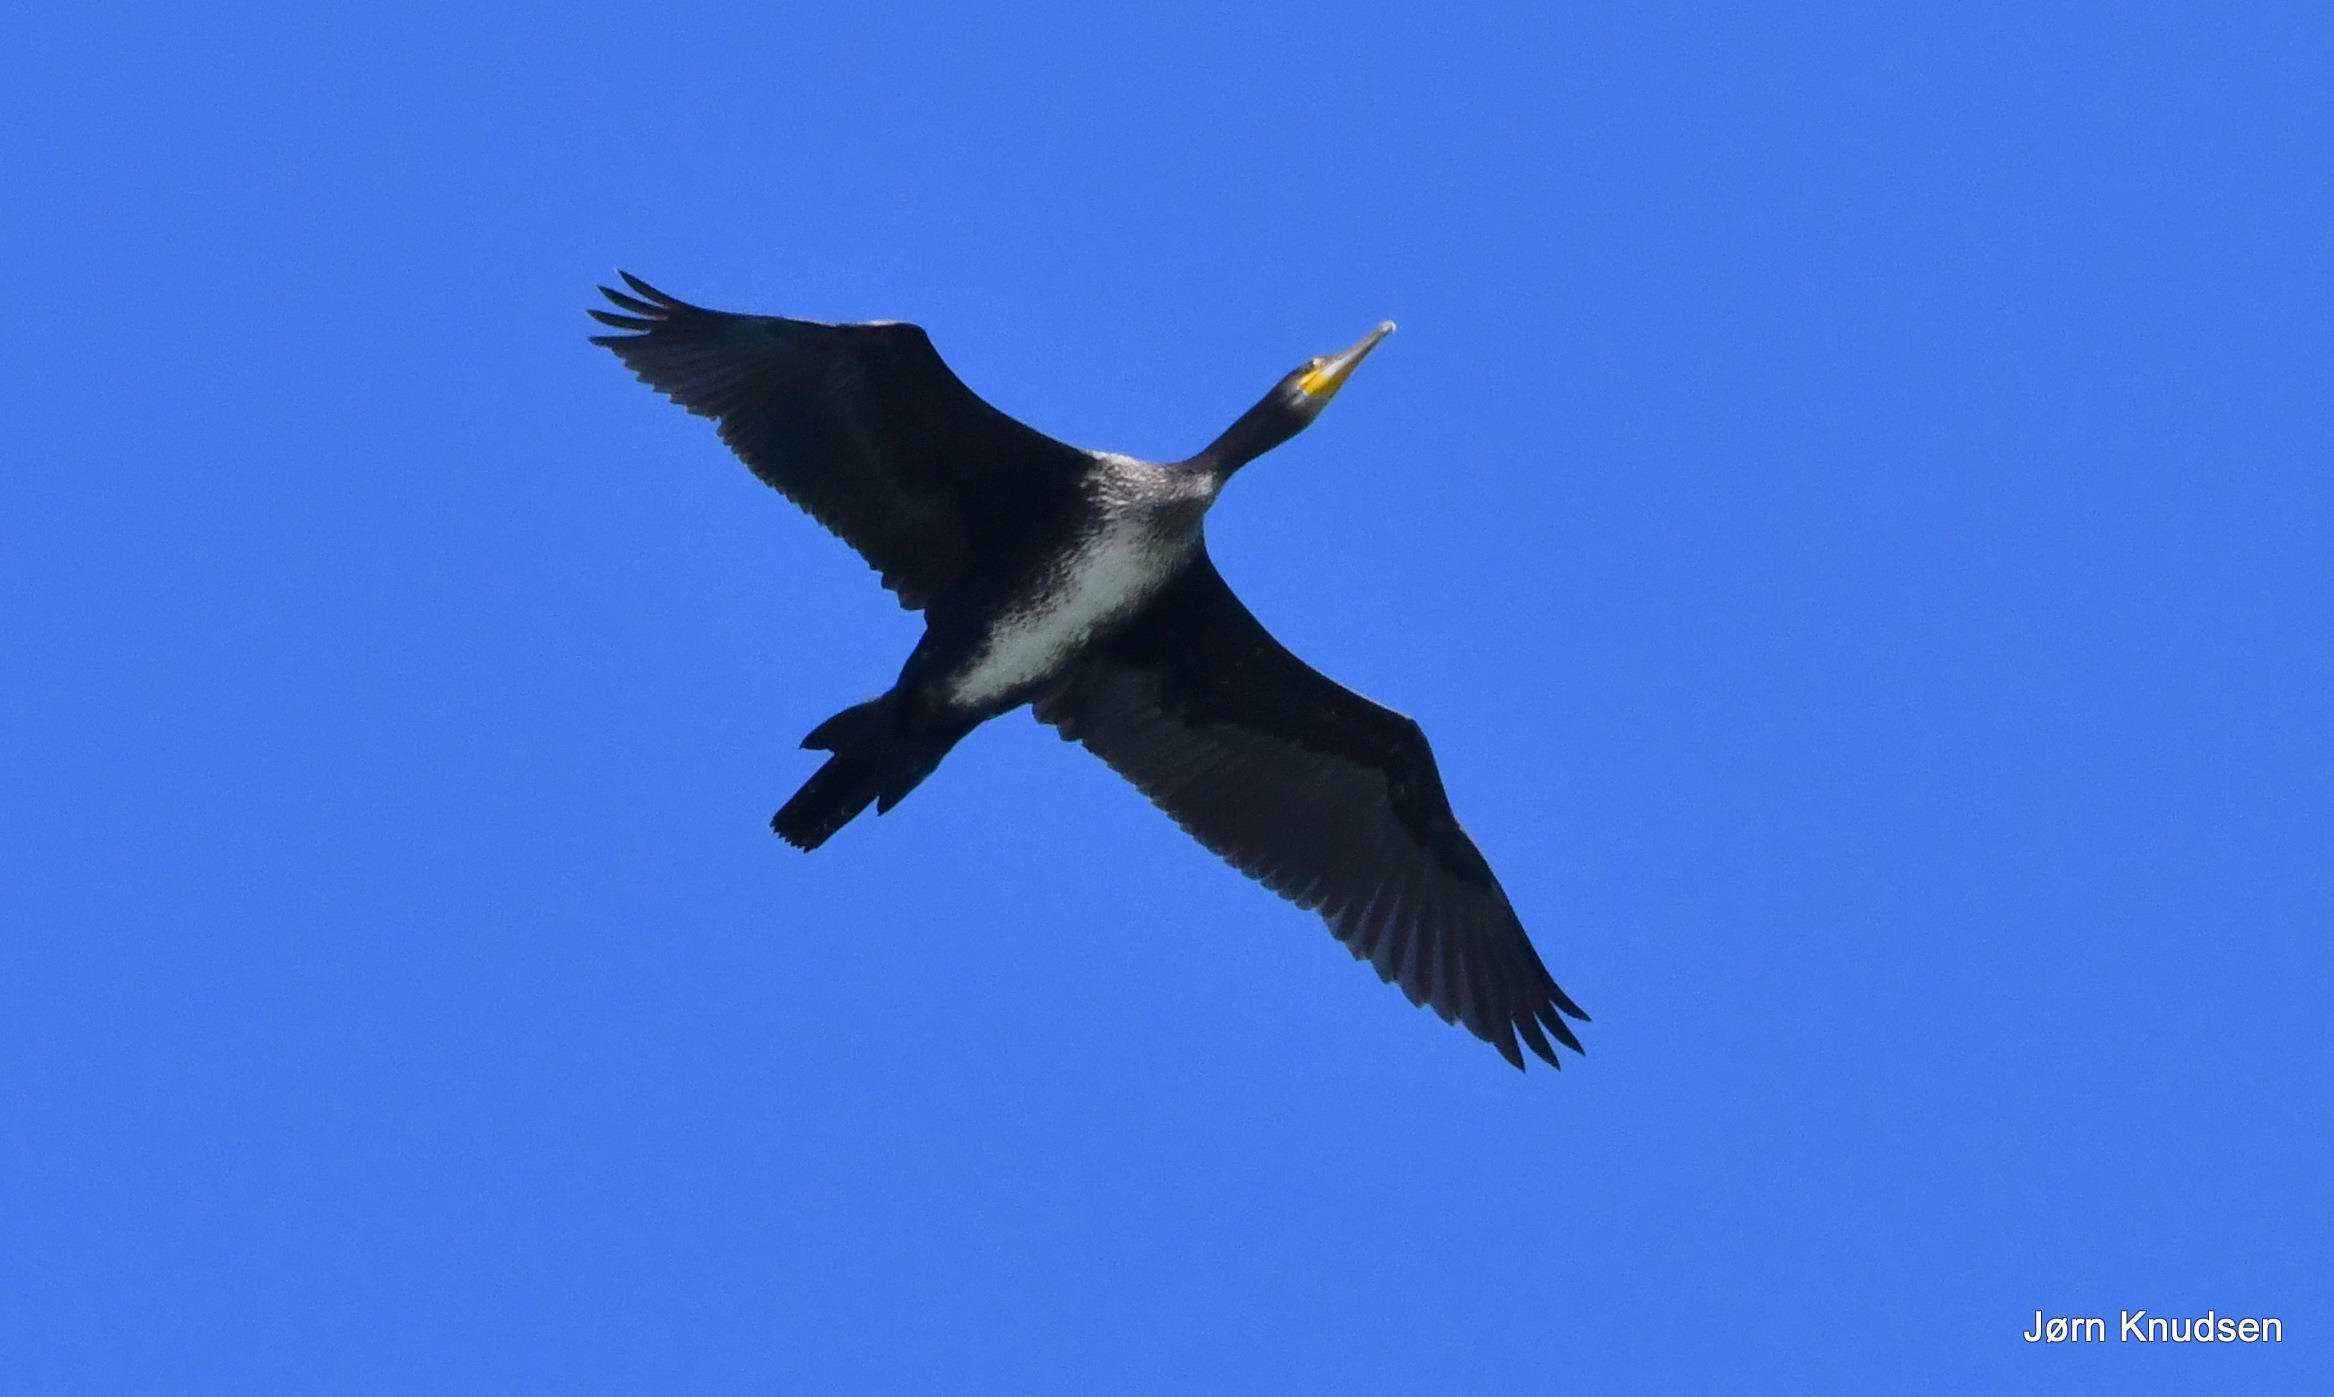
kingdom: Animalia
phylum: Chordata
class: Aves
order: Suliformes
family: Phalacrocoracidae
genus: Phalacrocorax
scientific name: Phalacrocorax carbo
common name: Skarv
